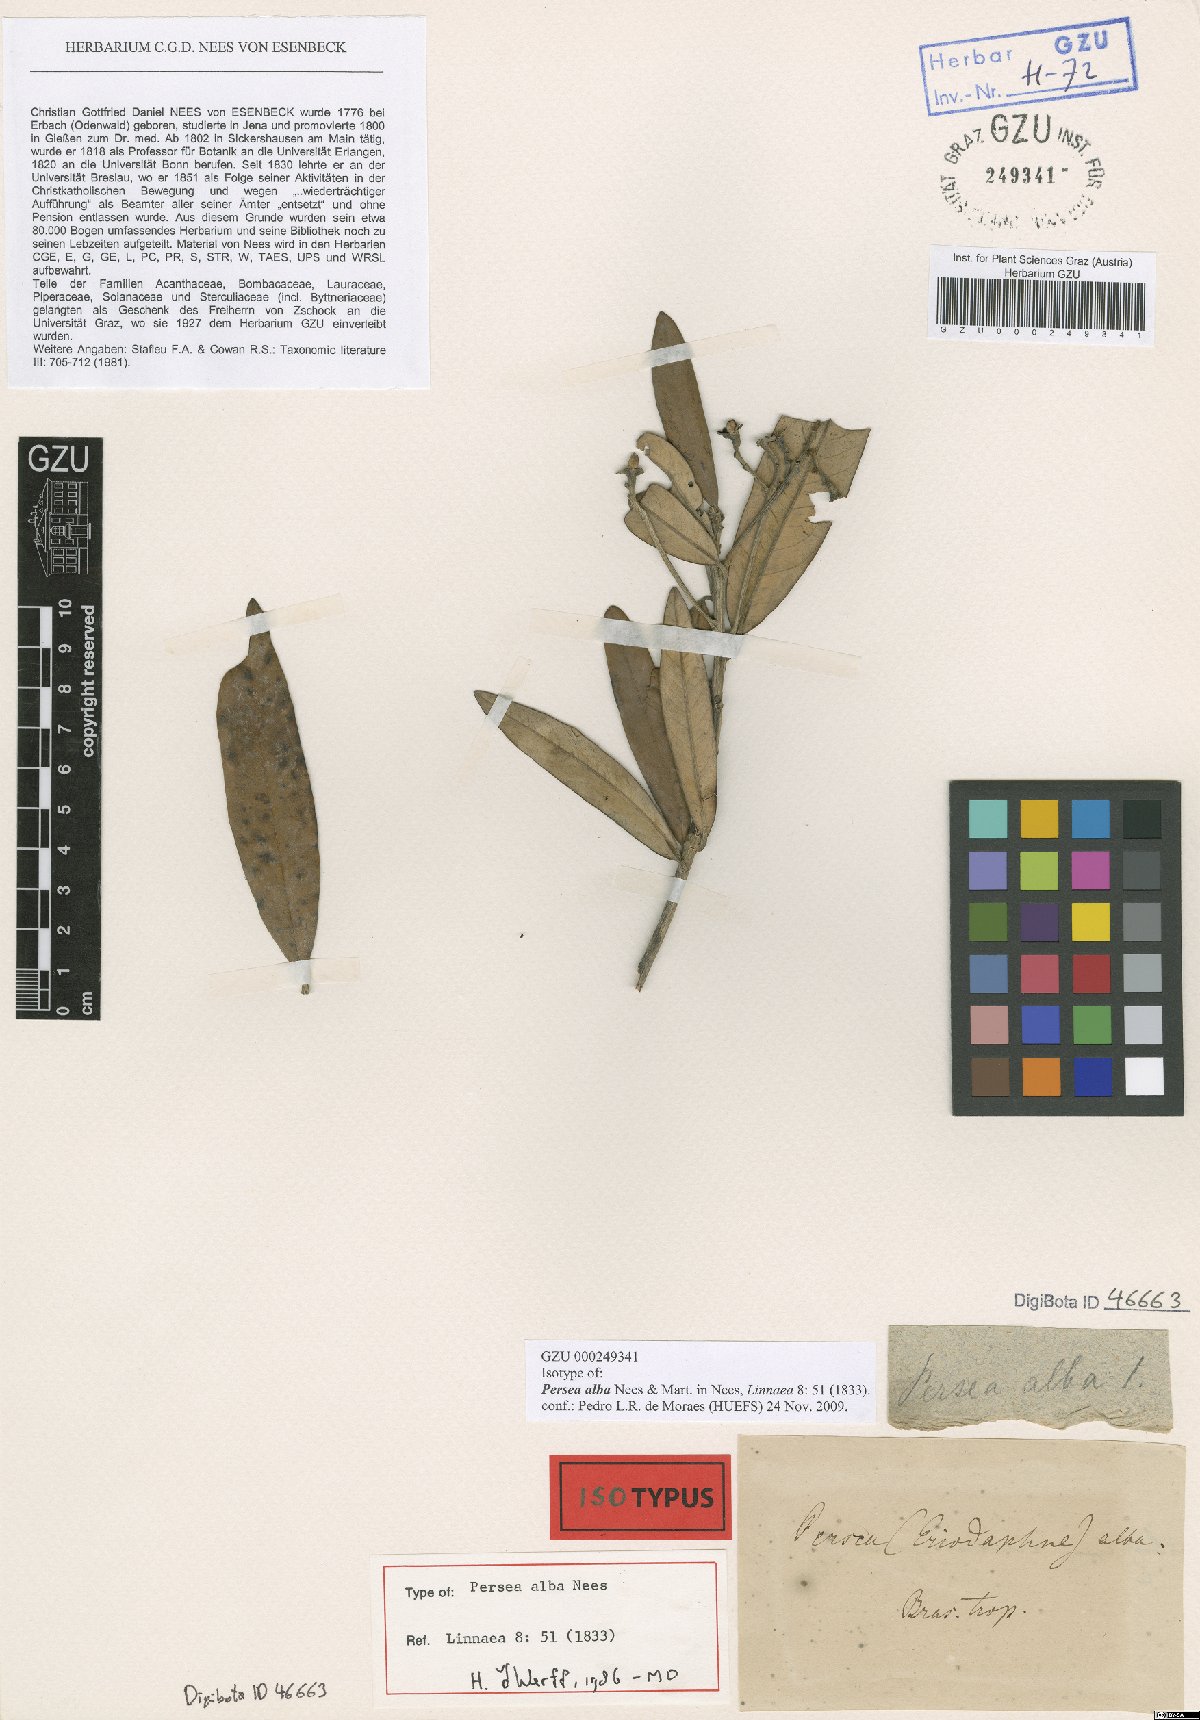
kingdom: Plantae
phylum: Tracheophyta
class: Magnoliopsida
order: Laurales
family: Lauraceae
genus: Persea
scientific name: Persea alba
